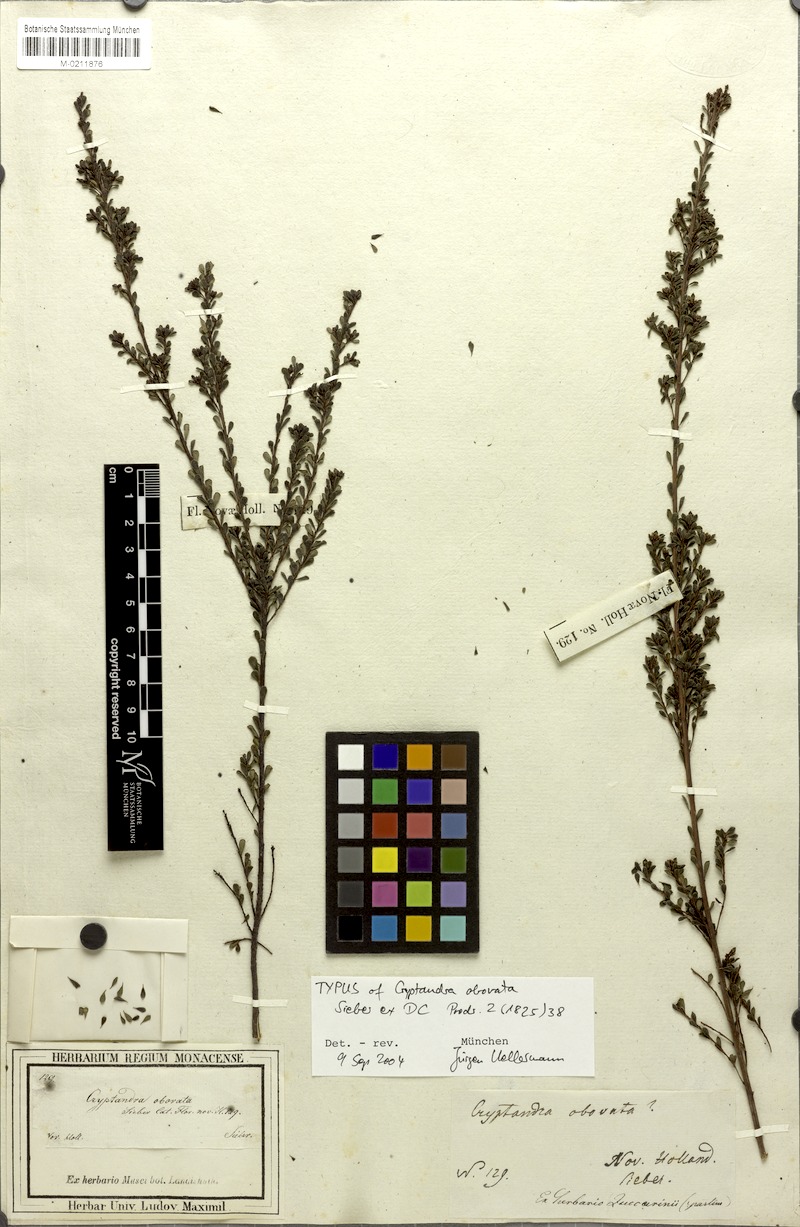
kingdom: Plantae
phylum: Tracheophyta
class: Magnoliopsida
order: Fabales
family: Fabaceae
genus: Pultenaea
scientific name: Pultenaea altissima
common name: Tall bush-pea
